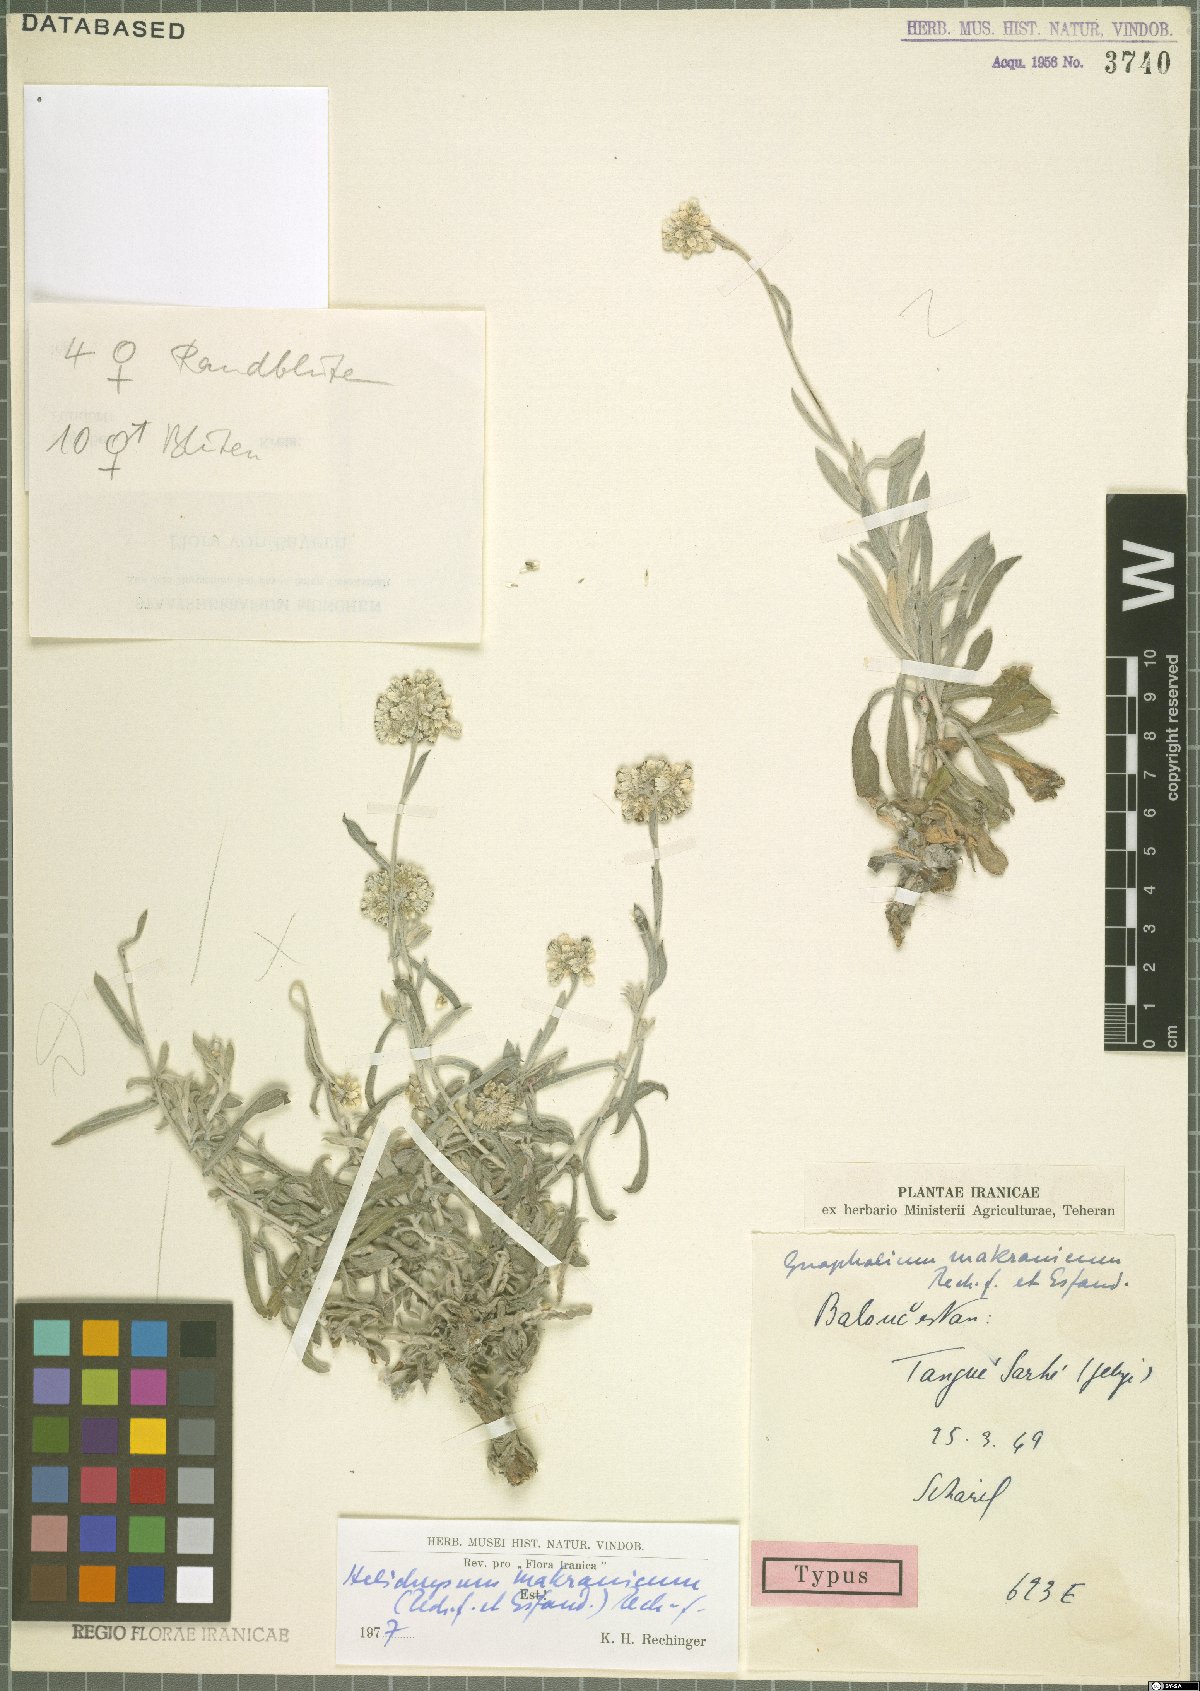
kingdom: Plantae
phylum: Tracheophyta
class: Magnoliopsida
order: Asterales
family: Asteraceae
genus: Helichrysum
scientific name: Helichrysum glumaceum
